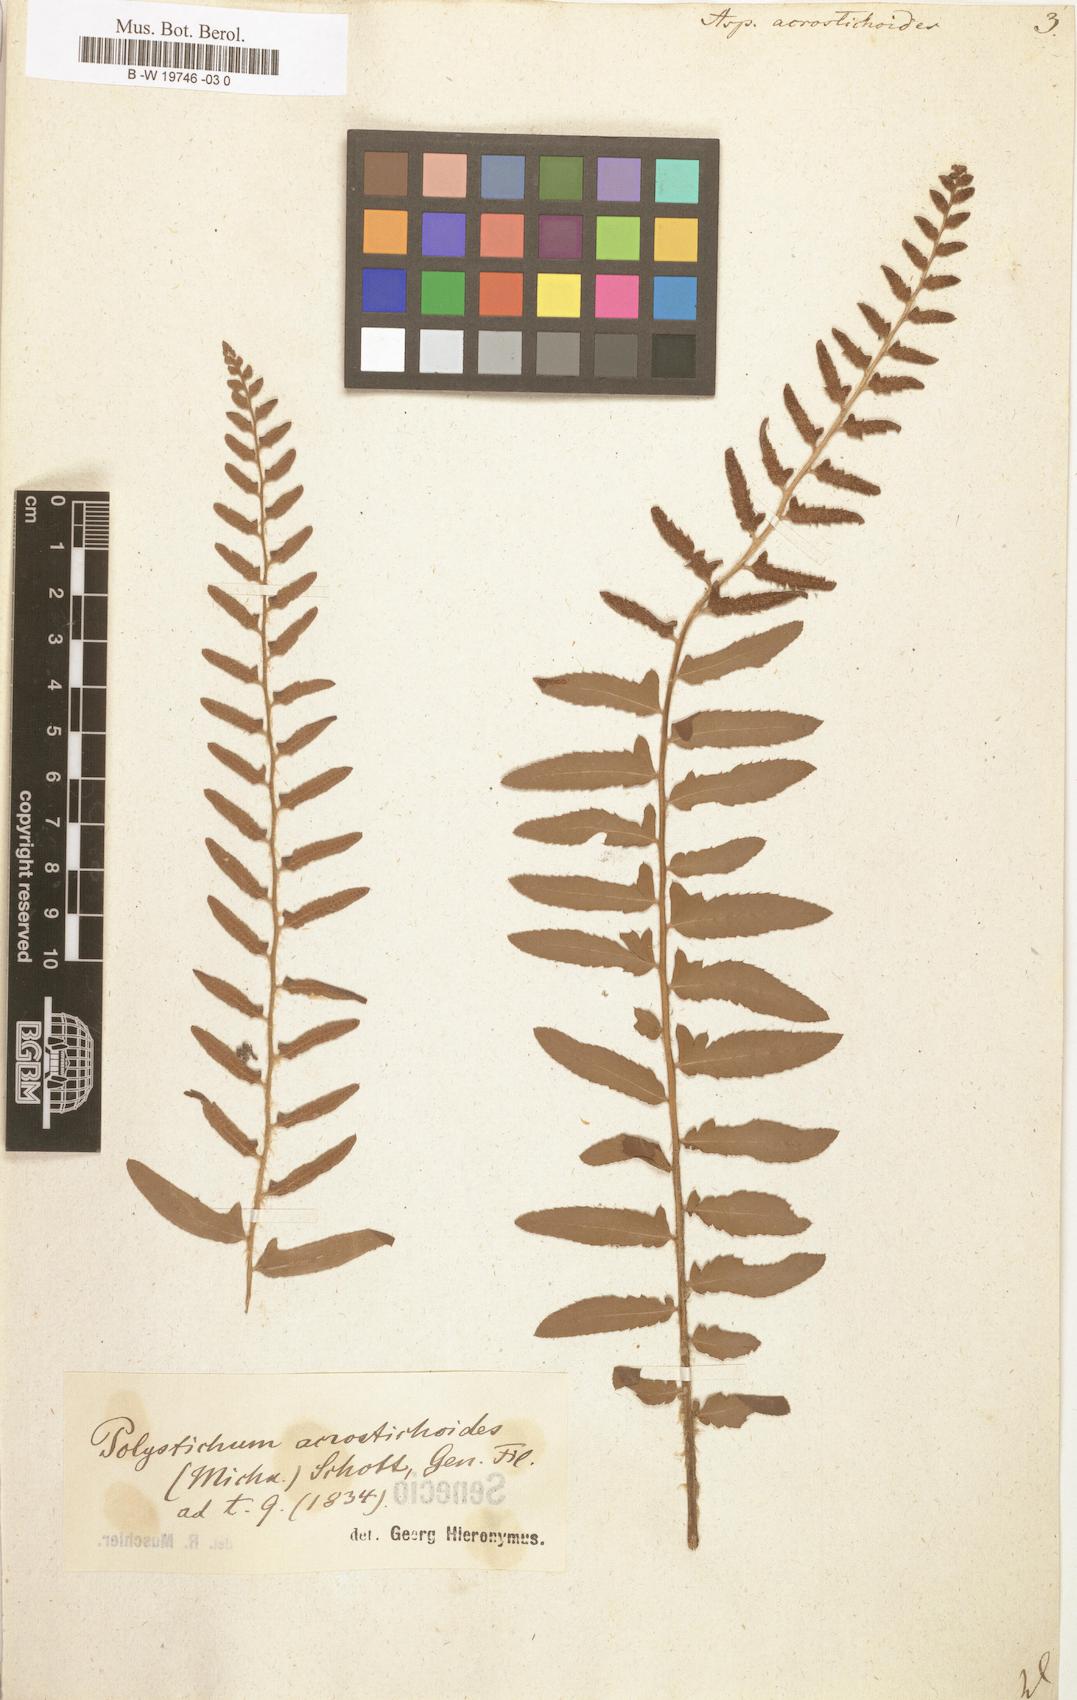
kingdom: Plantae
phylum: Tracheophyta
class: Polypodiopsida
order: Polypodiales
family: Dryopteridaceae
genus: Polystichum
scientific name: Polystichum acrostichoides
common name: Christmas fern
